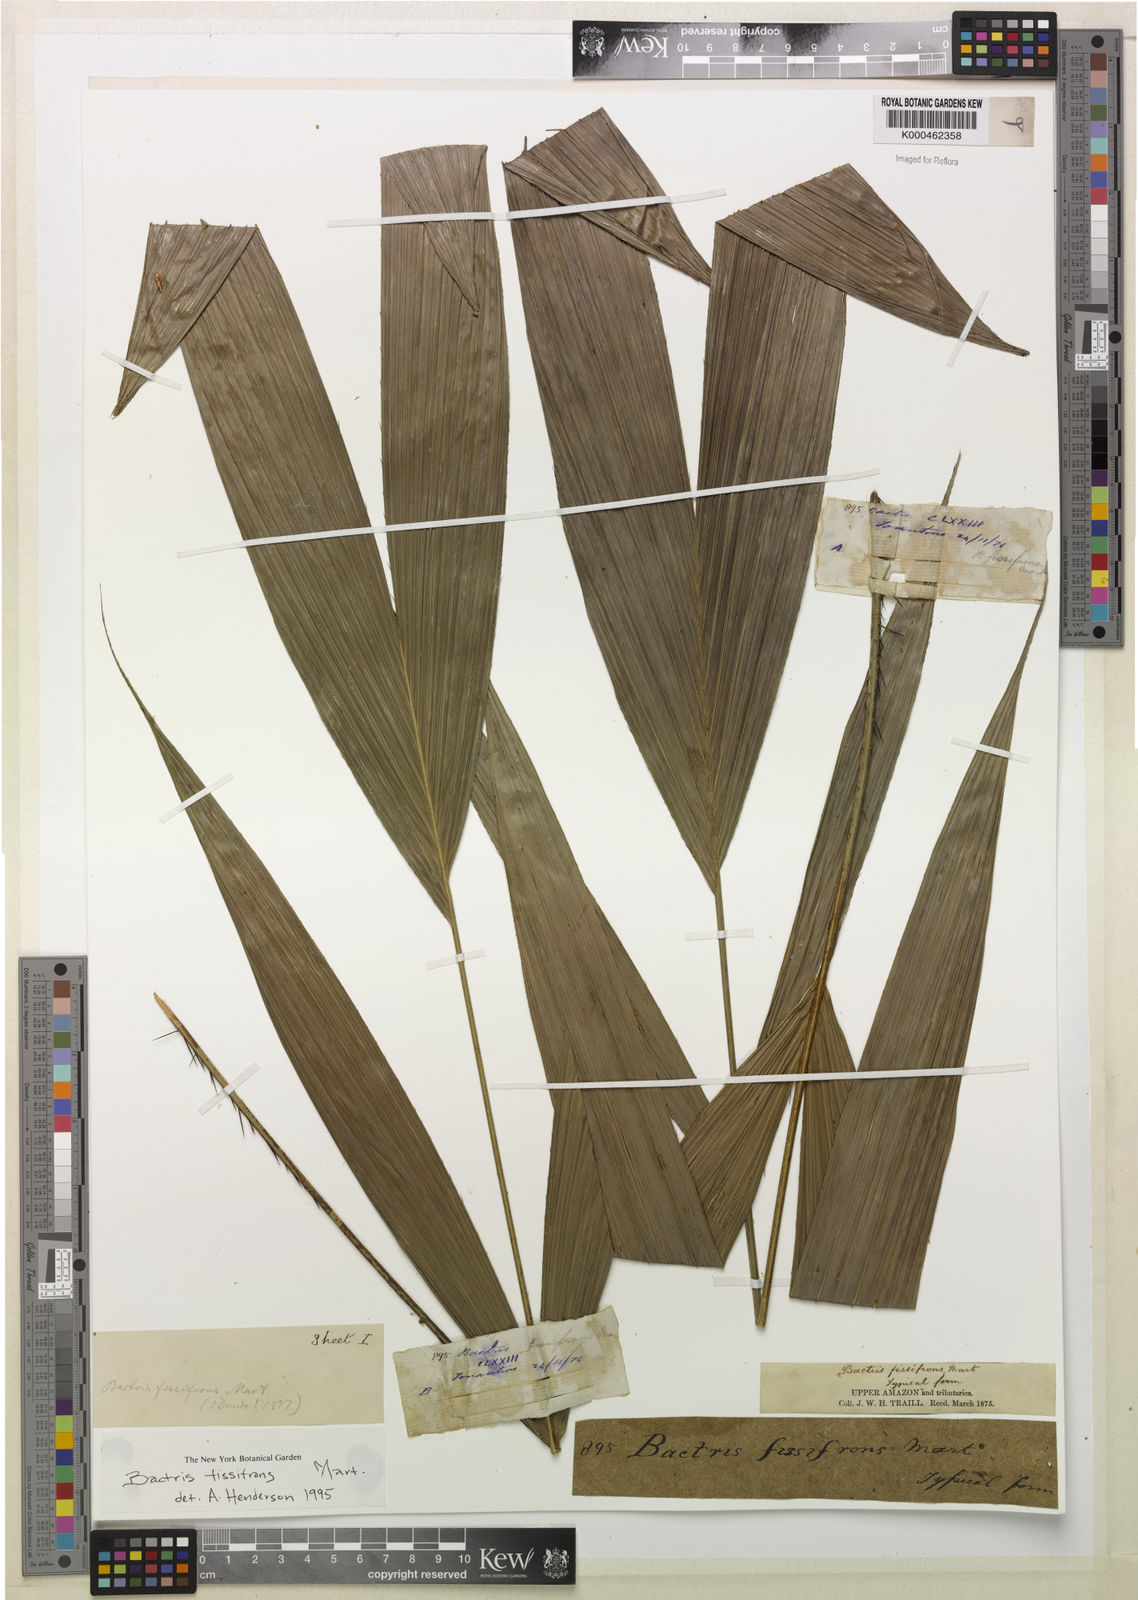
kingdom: Plantae
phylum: Tracheophyta
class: Liliopsida
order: Arecales
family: Arecaceae
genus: Bactris
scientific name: Bactris fissifrons
